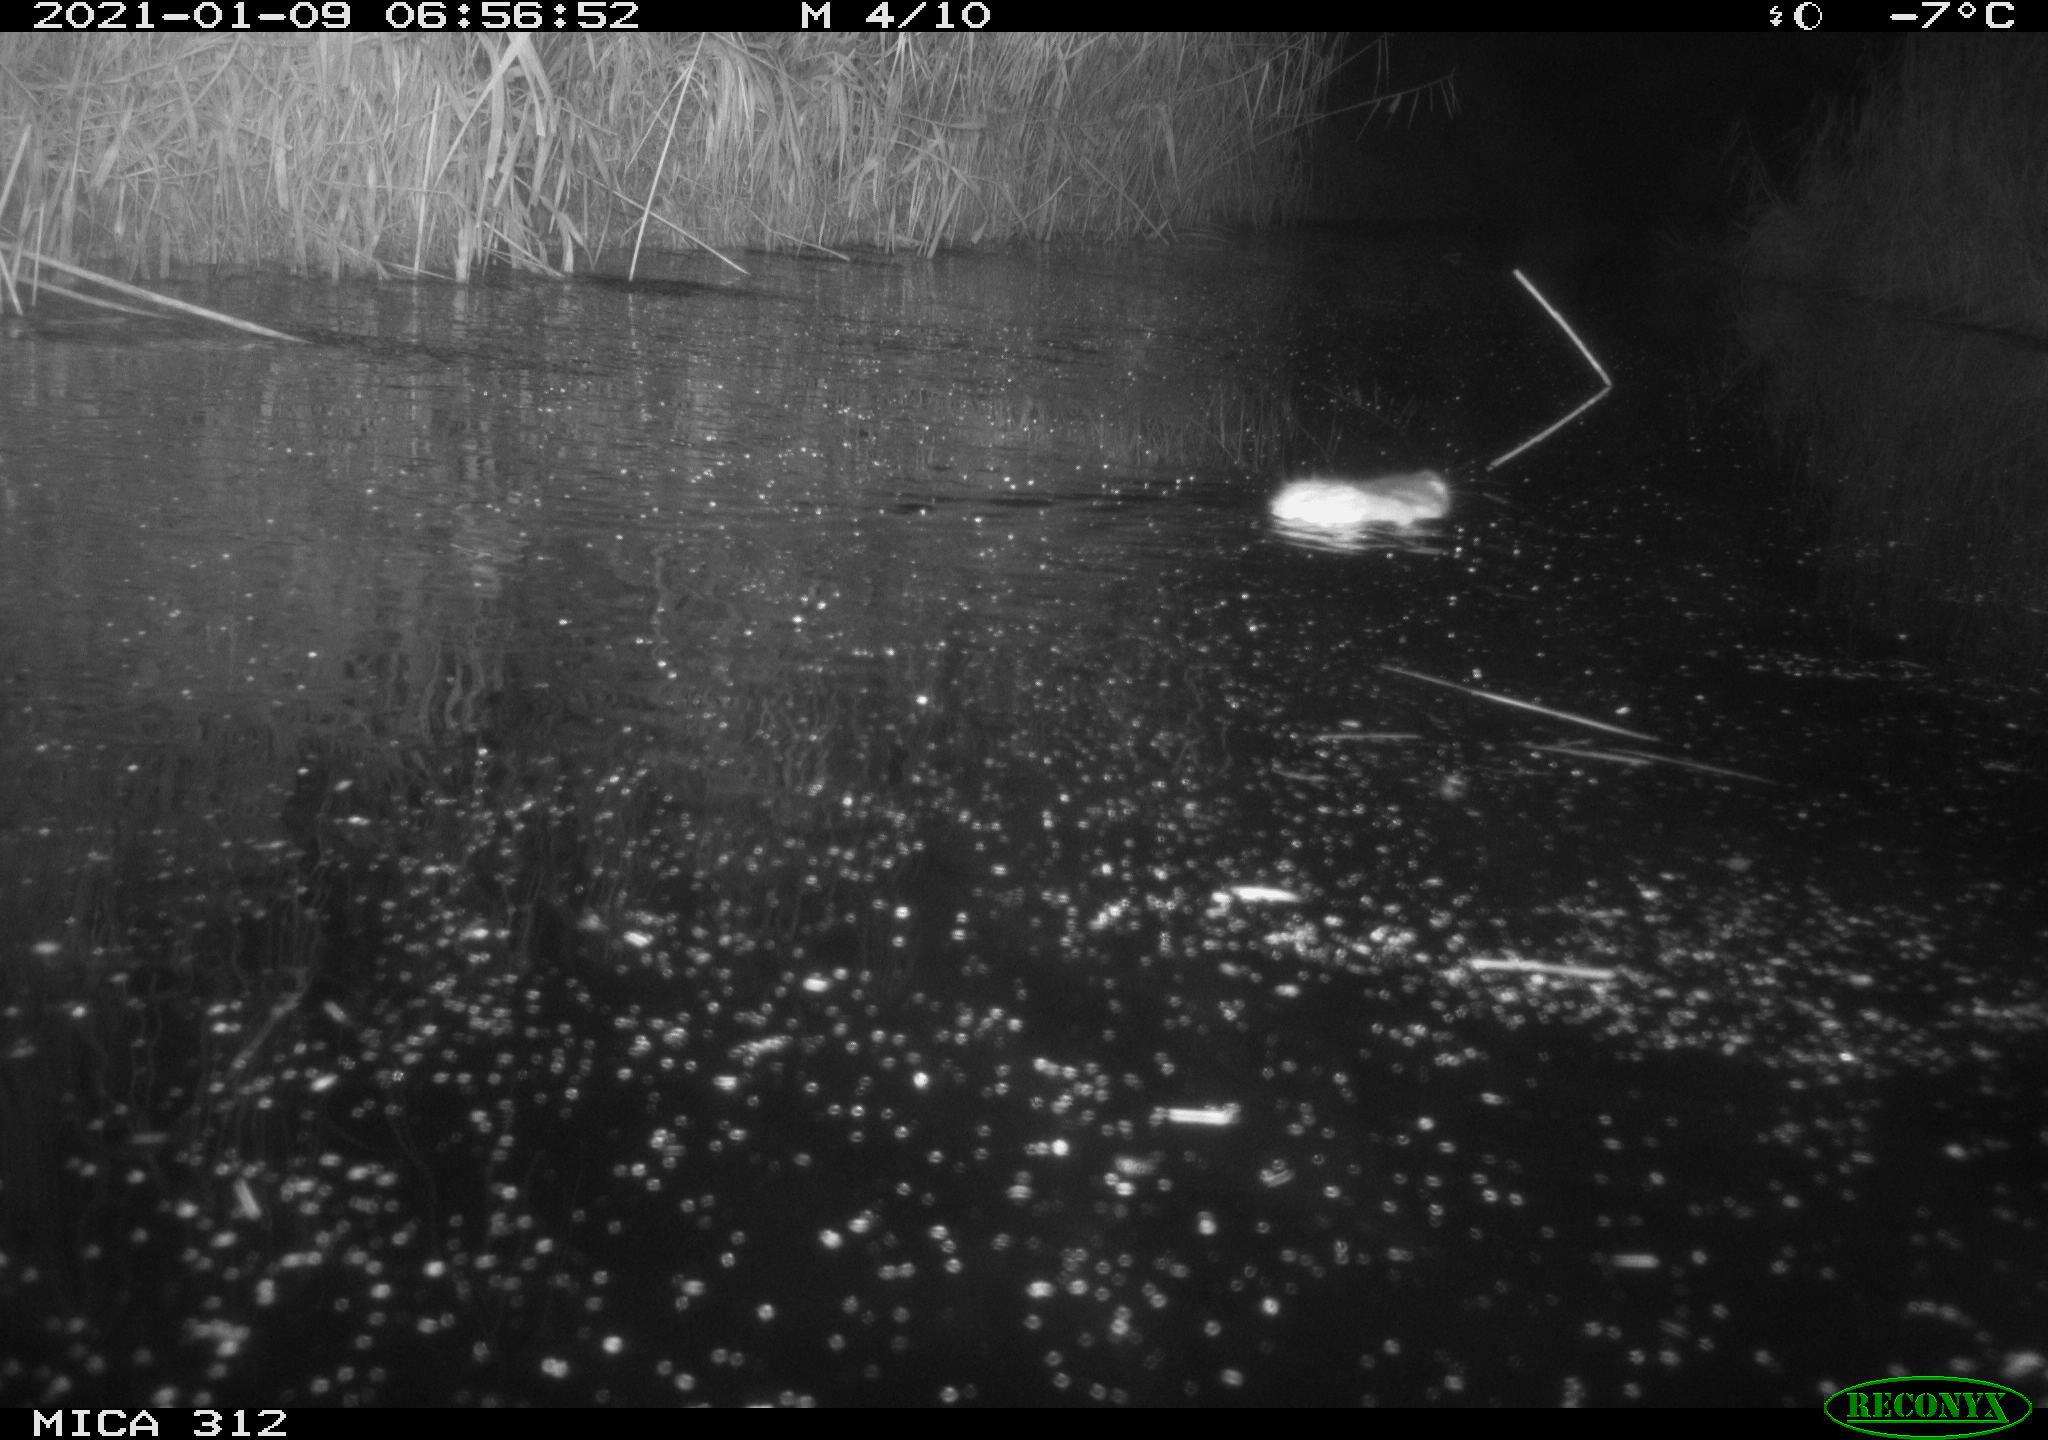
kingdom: Animalia
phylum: Chordata
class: Mammalia
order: Rodentia
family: Muridae
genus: Rattus
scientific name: Rattus norvegicus
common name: Brown rat
